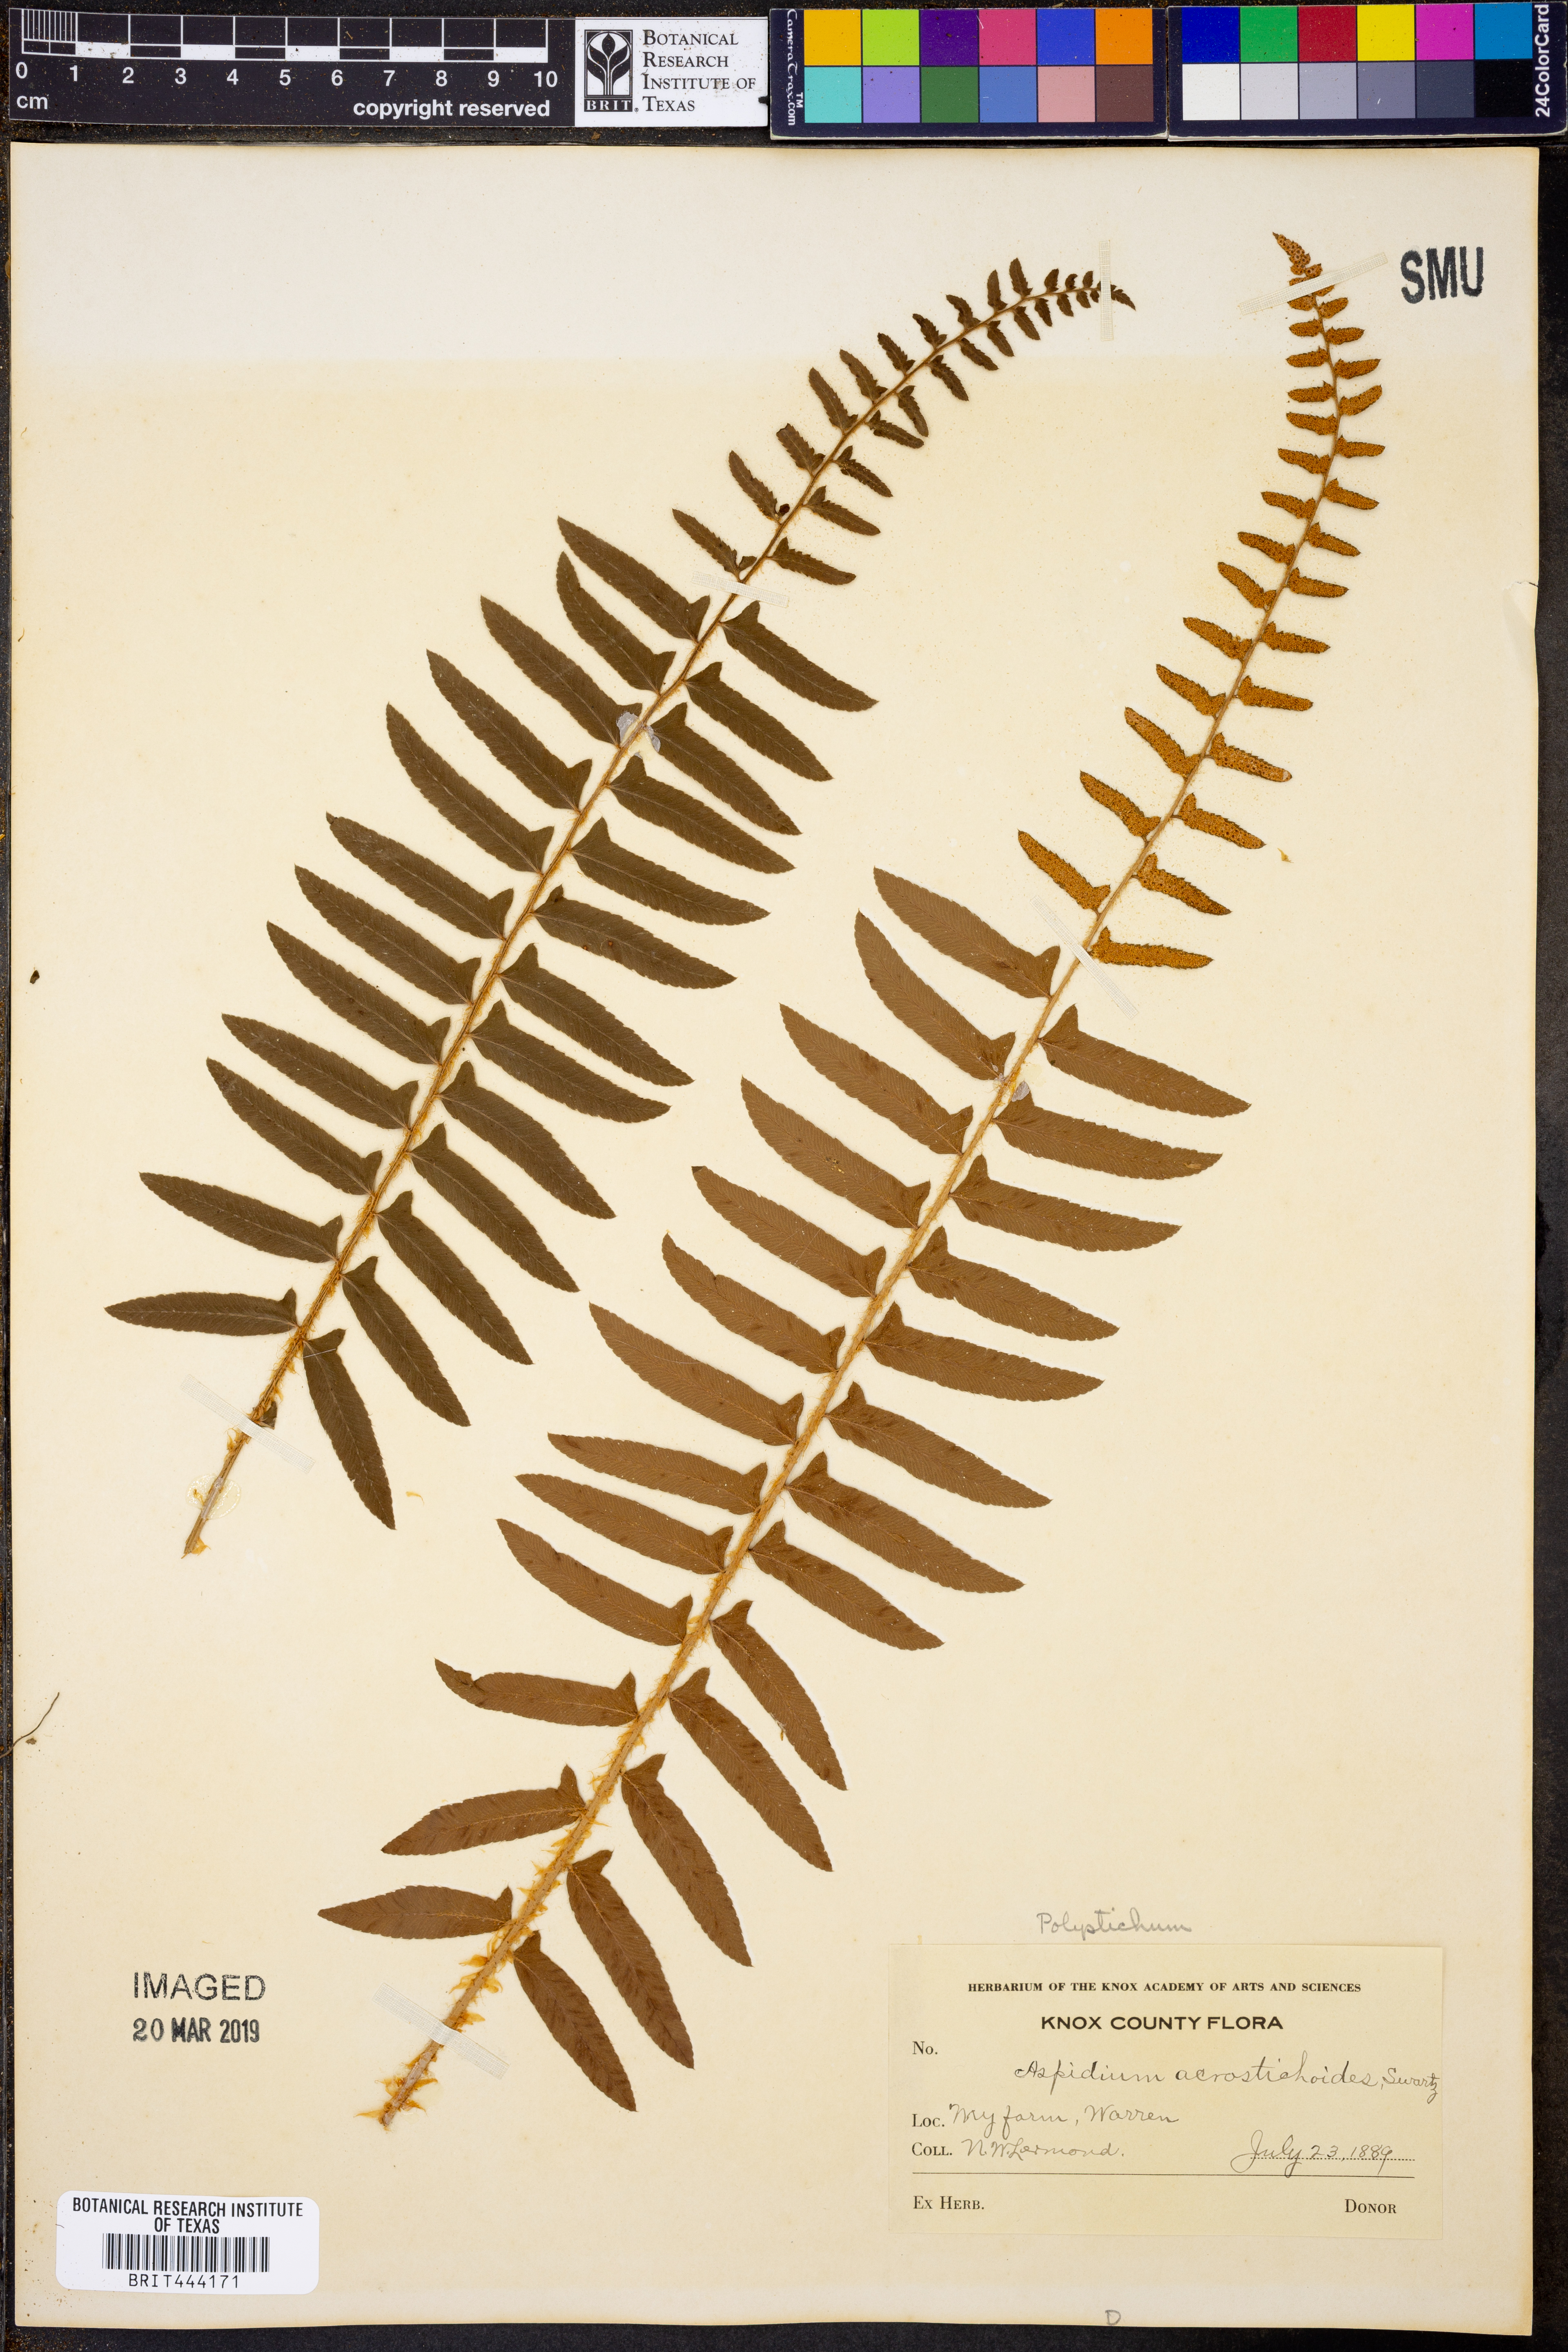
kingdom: Plantae
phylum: Tracheophyta
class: Polypodiopsida
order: Polypodiales
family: Dryopteridaceae
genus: Polystichum
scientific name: Polystichum acrostichoides
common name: Christmas fern
